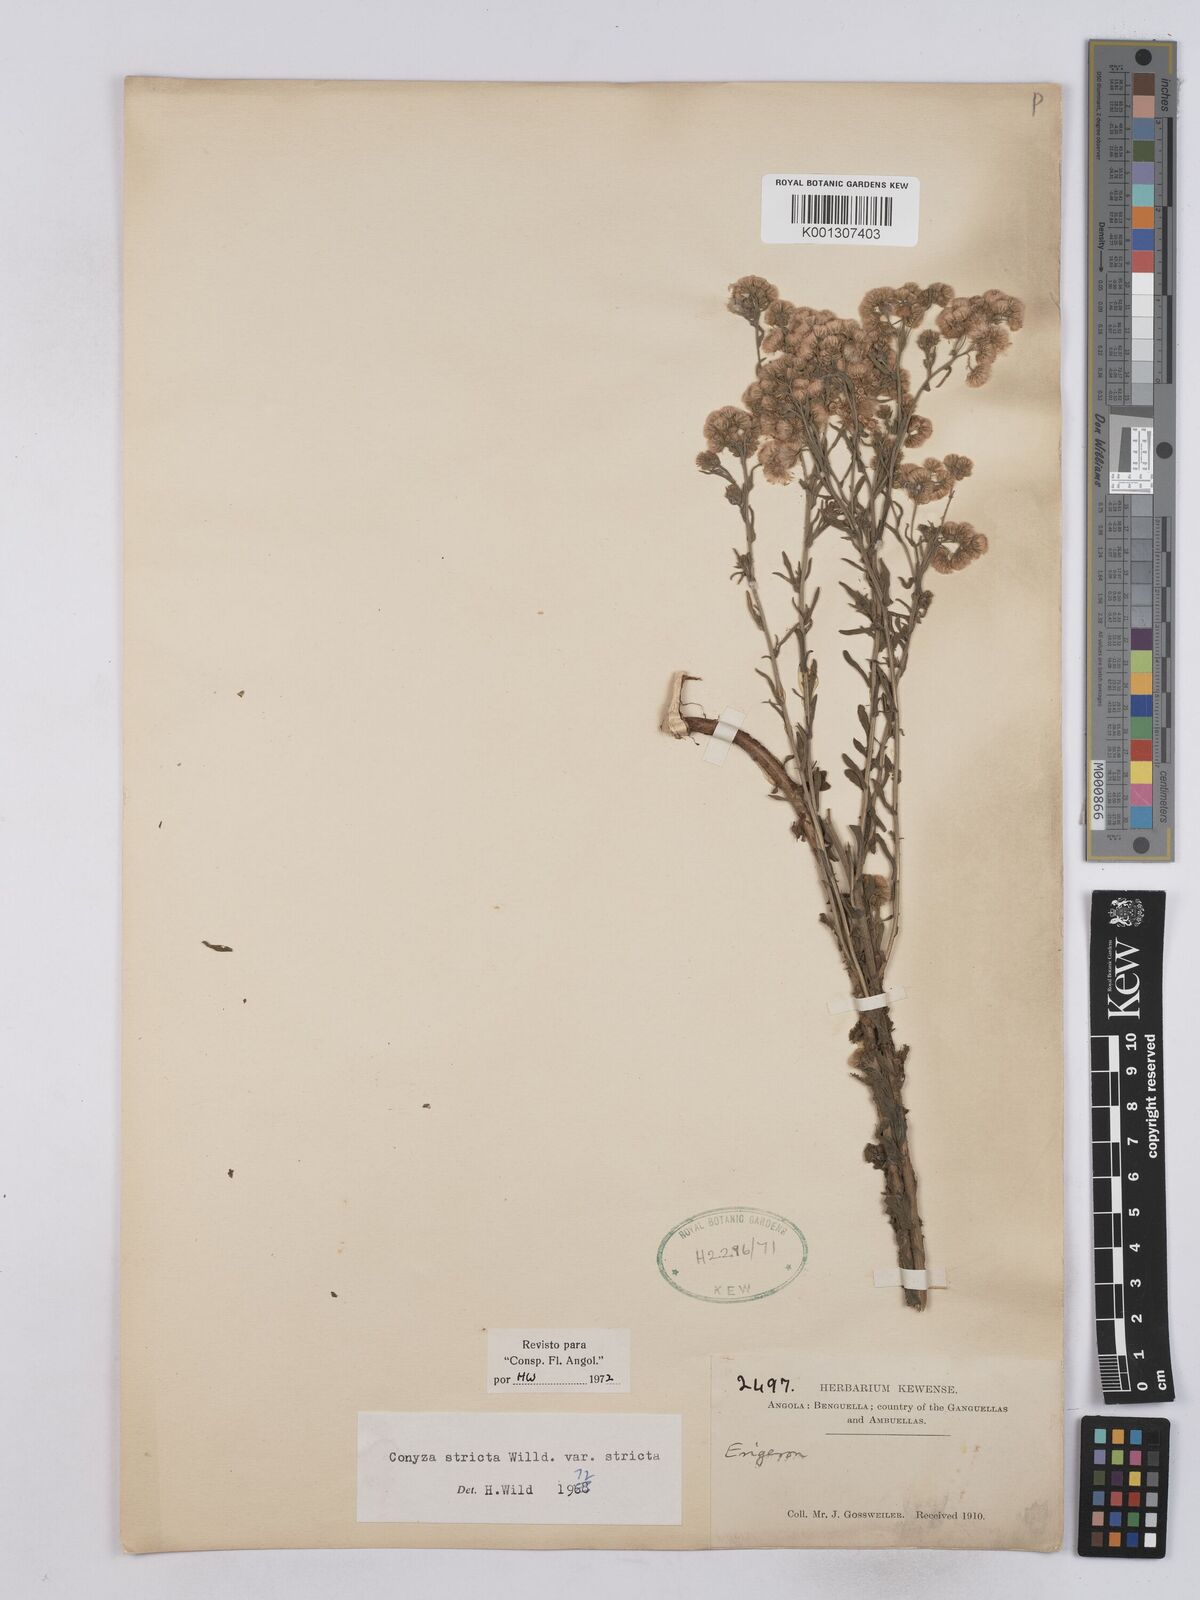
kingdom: Plantae
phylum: Tracheophyta
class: Magnoliopsida
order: Asterales
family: Asteraceae
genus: Nidorella
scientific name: Nidorella triloba
